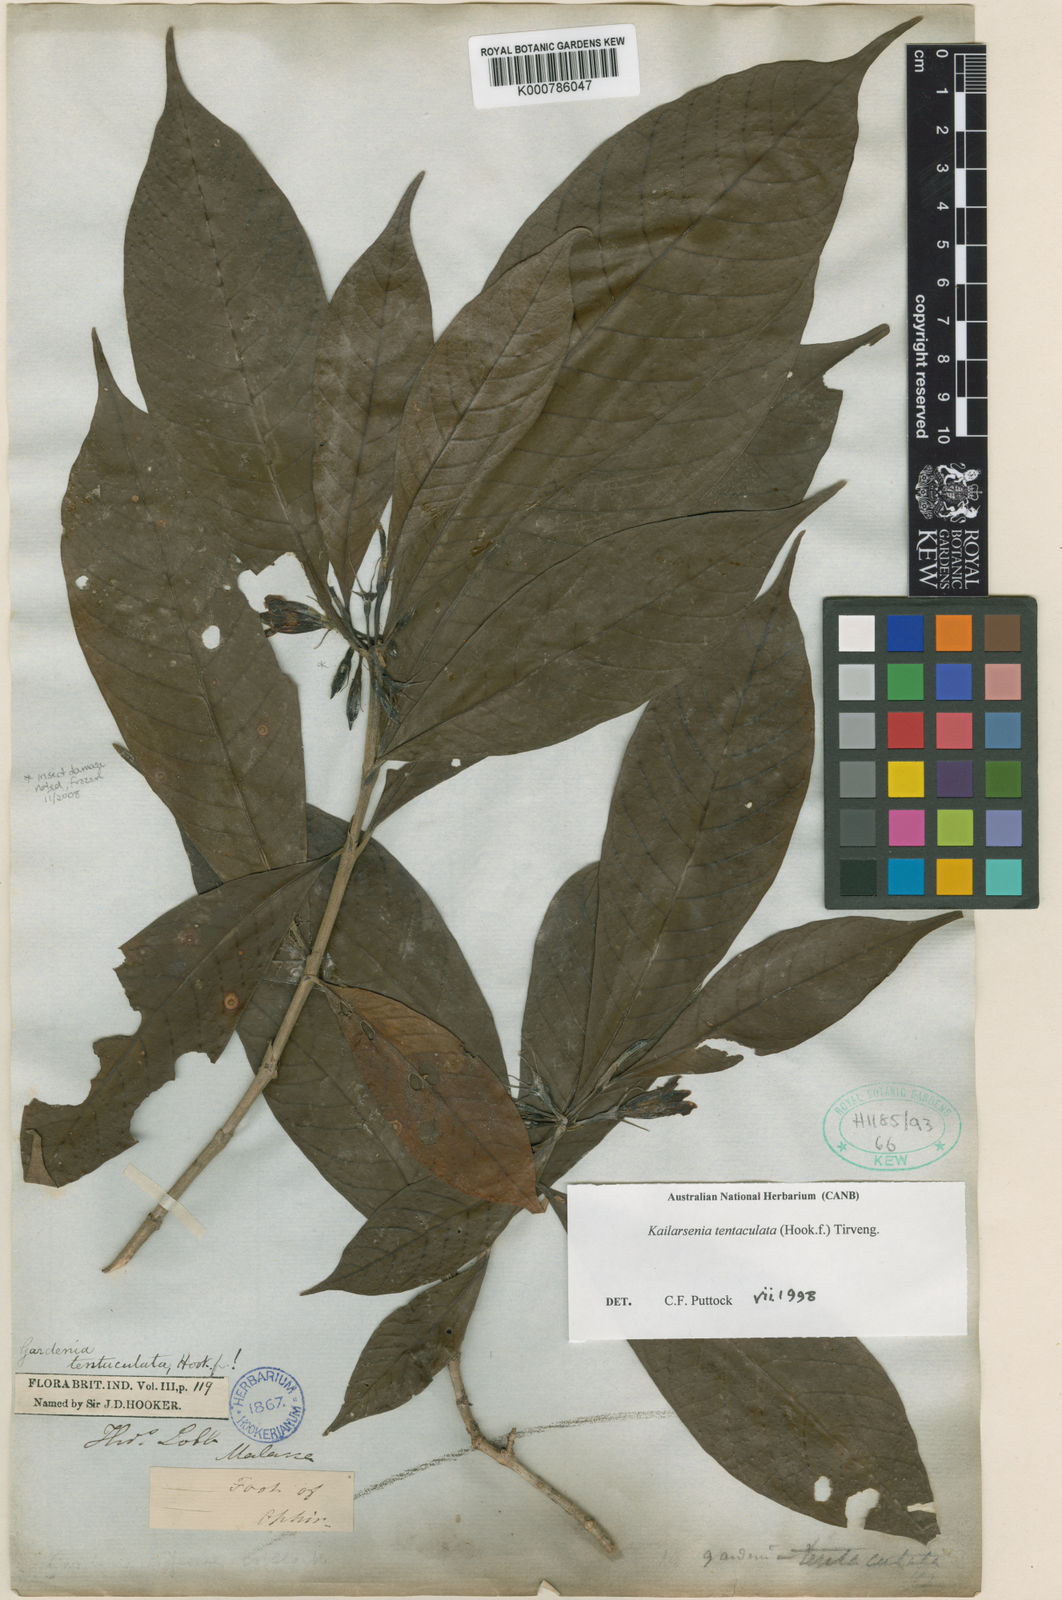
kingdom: Plantae
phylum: Tracheophyta
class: Magnoliopsida
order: Gentianales
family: Rubiaceae
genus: Kailarsenia
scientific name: Kailarsenia tentaculata
